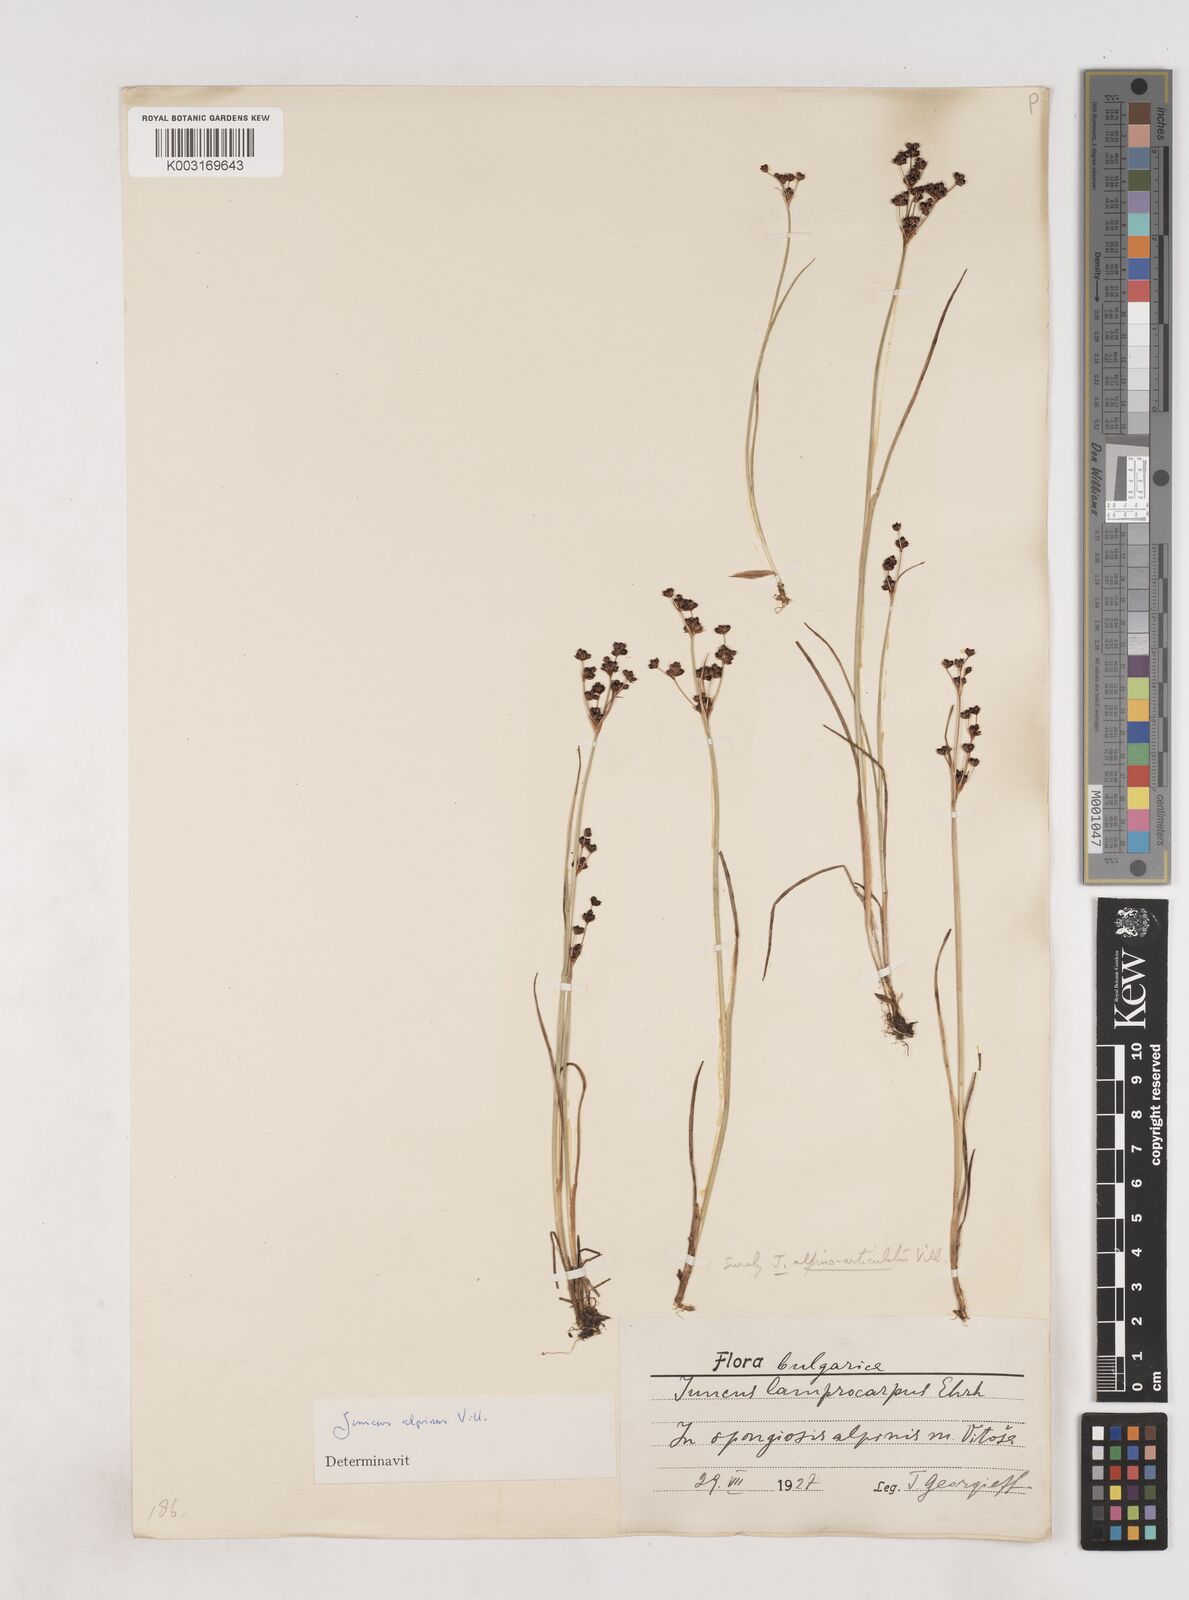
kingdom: Plantae
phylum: Tracheophyta
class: Liliopsida
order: Poales
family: Juncaceae
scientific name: Juncaceae
